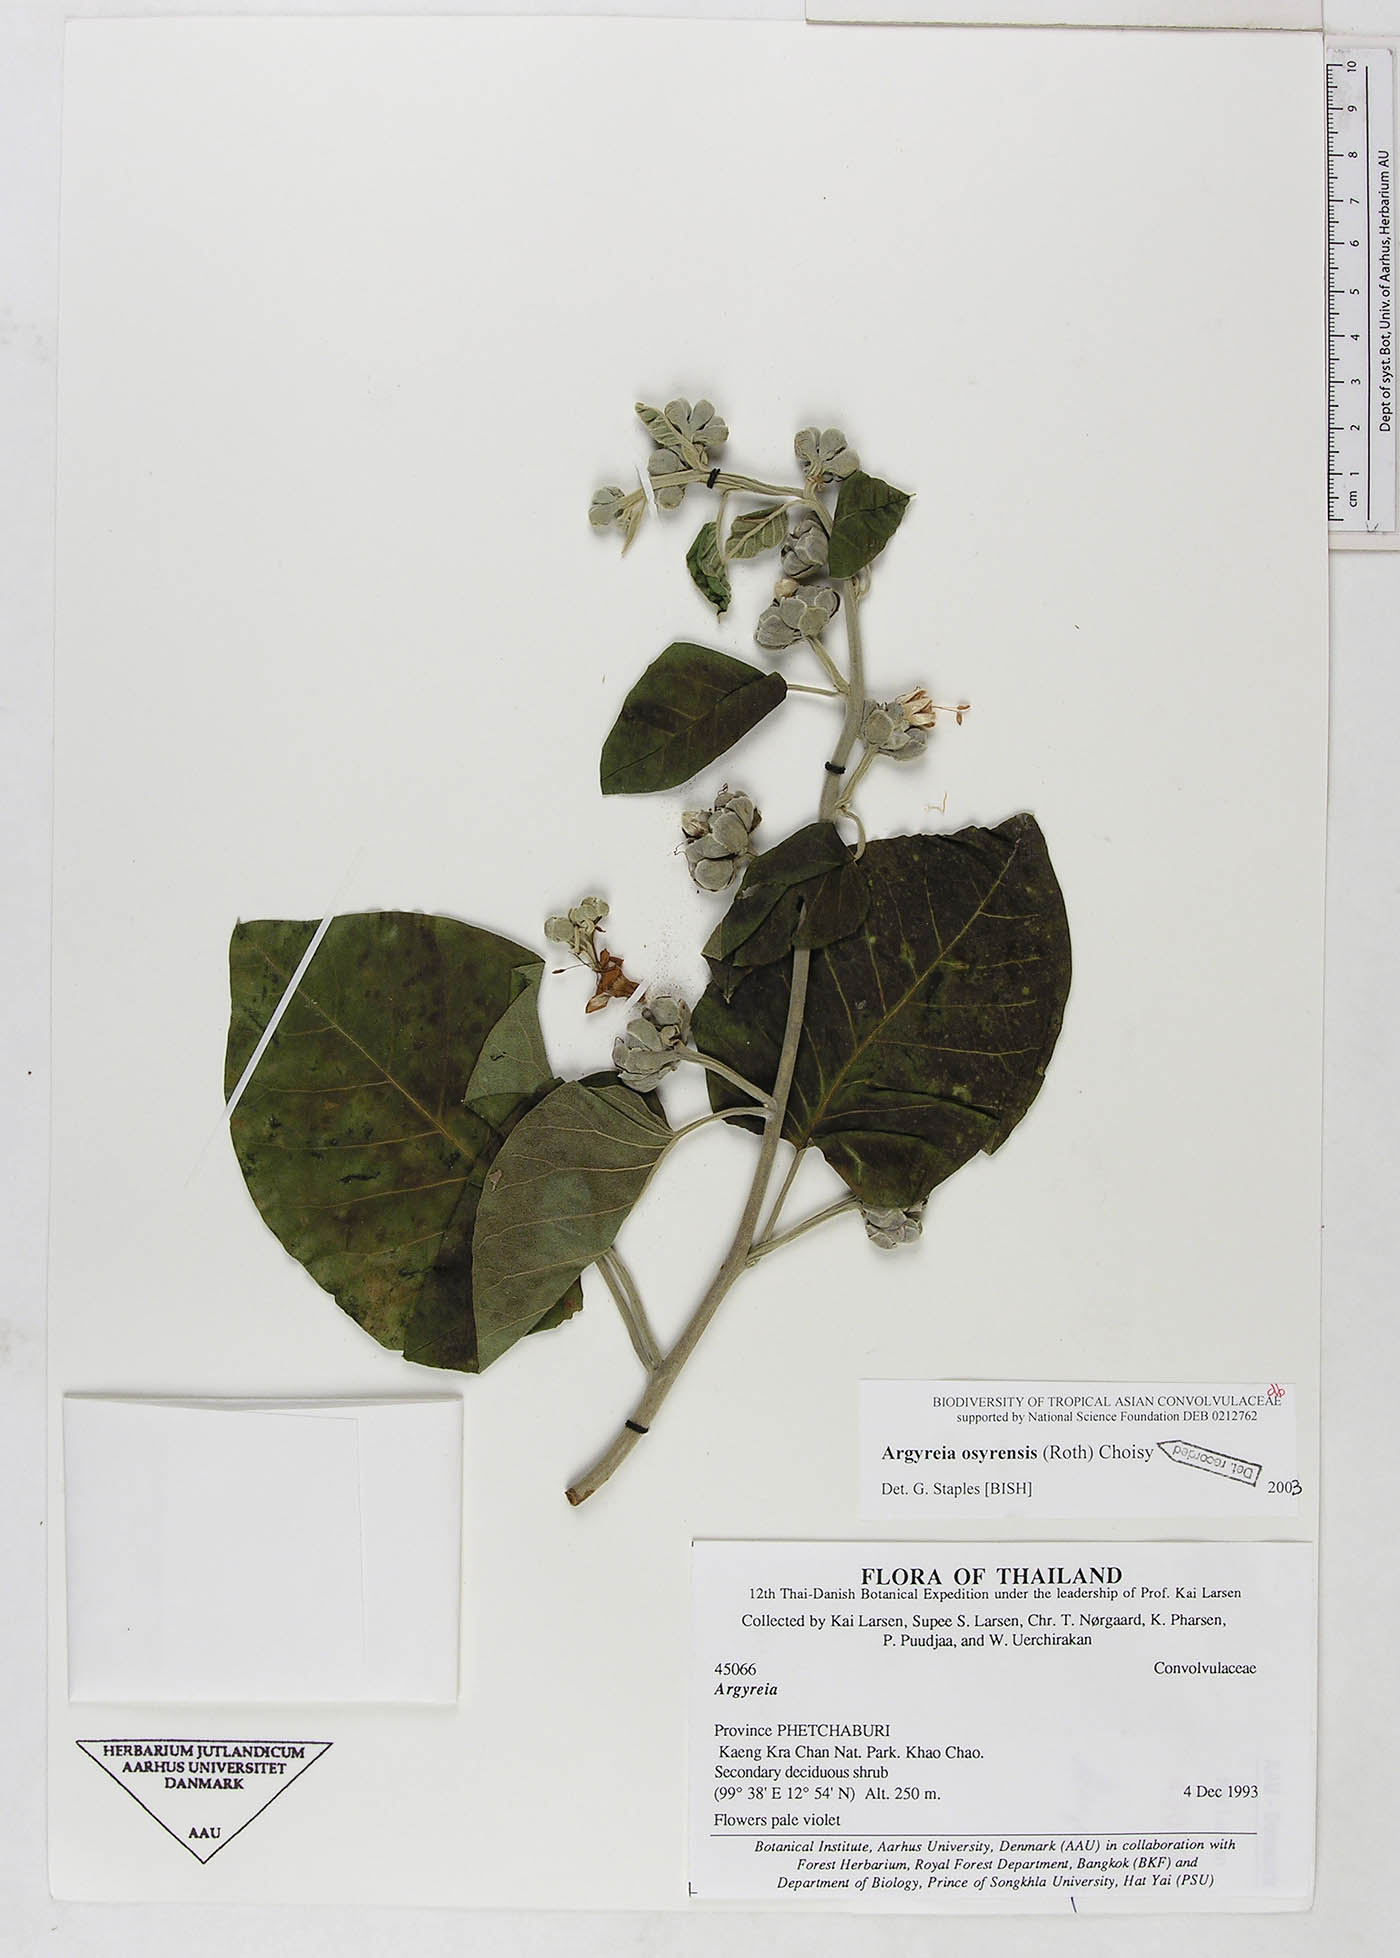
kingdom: Plantae
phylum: Tracheophyta
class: Magnoliopsida
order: Solanales
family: Convolvulaceae
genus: Argyreia
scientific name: Argyreia osyrensis
